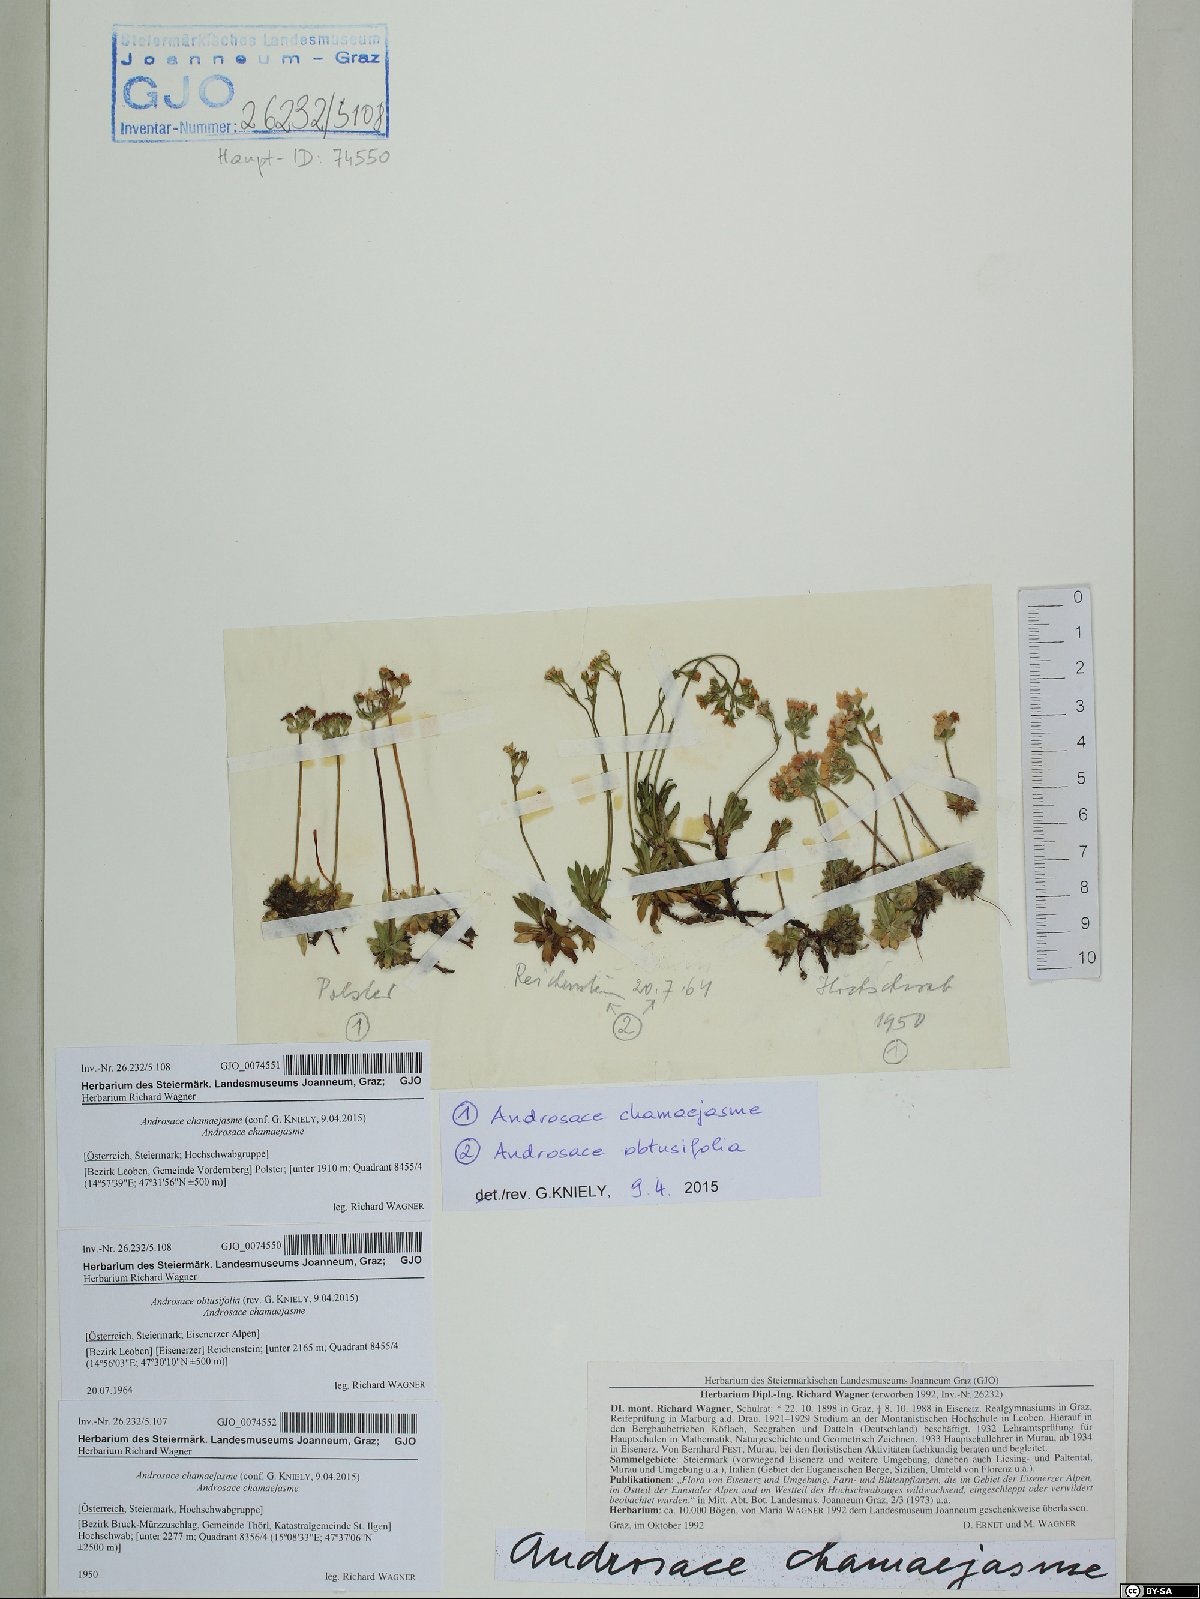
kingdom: Plantae
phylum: Tracheophyta
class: Magnoliopsida
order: Ericales
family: Primulaceae
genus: Androsace
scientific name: Androsace obtusifolia
